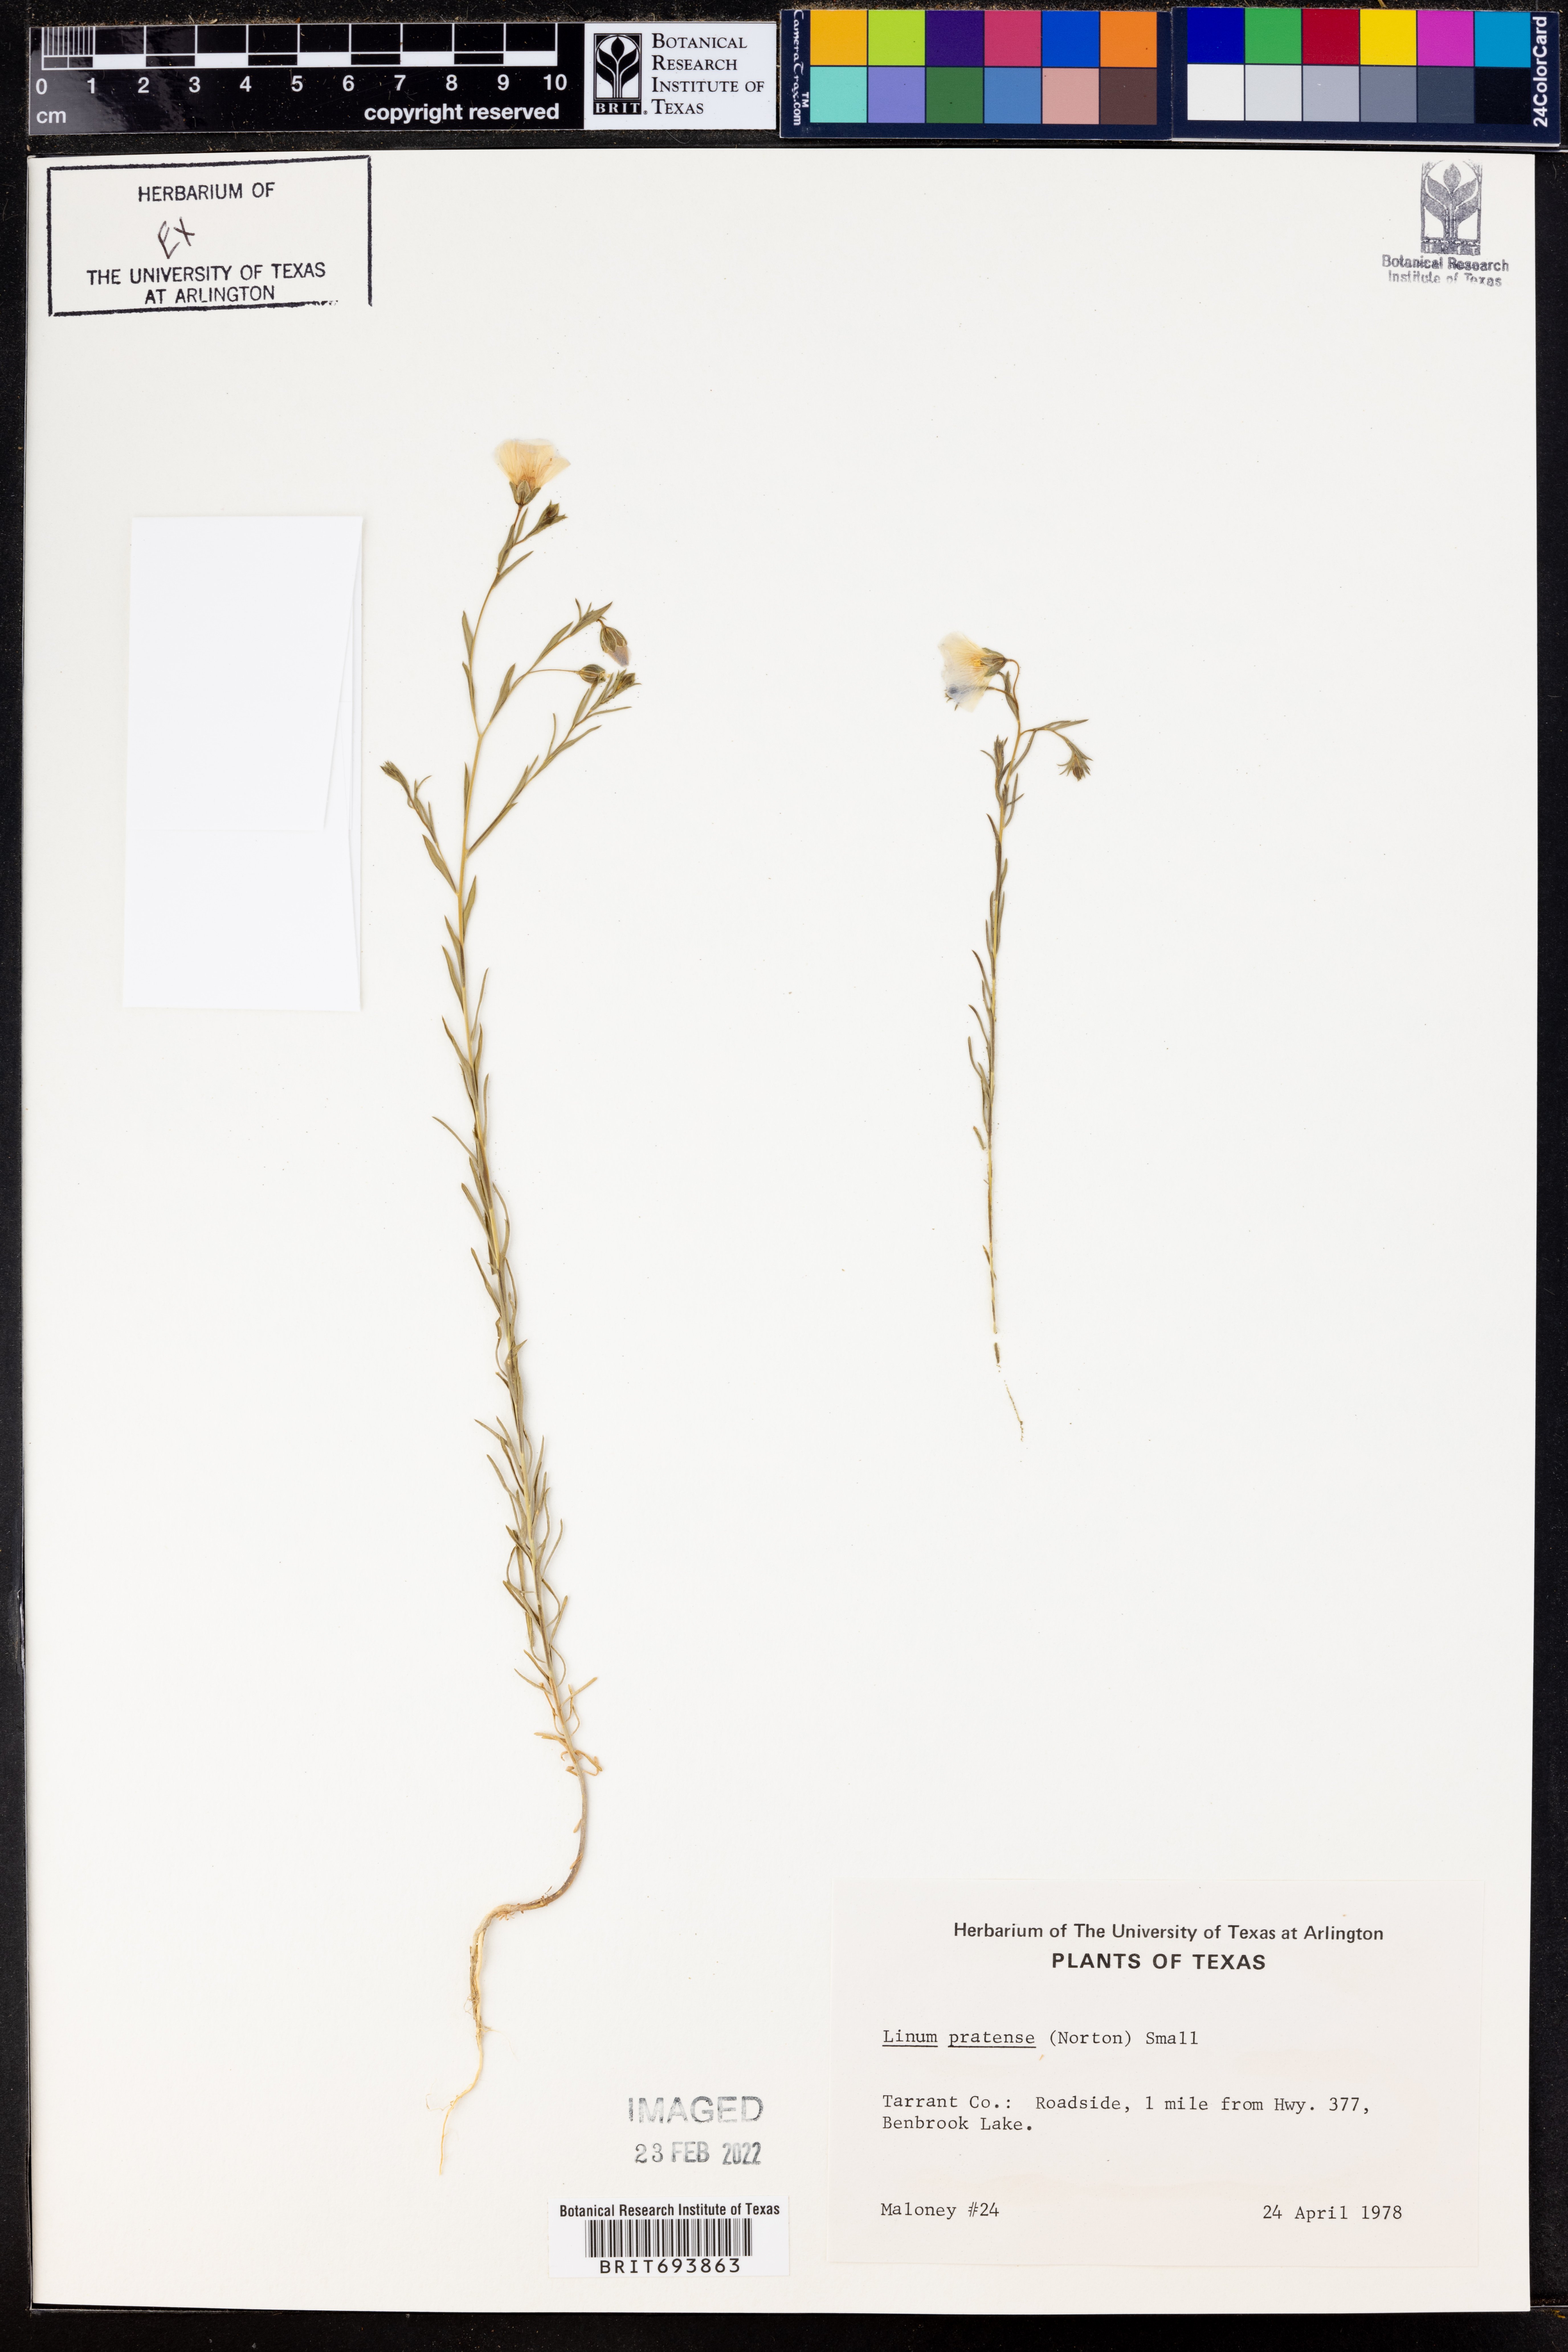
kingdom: Plantae
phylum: Tracheophyta
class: Magnoliopsida
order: Malpighiales
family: Linaceae
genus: Linum
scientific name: Linum pratense
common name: Norton's flax
